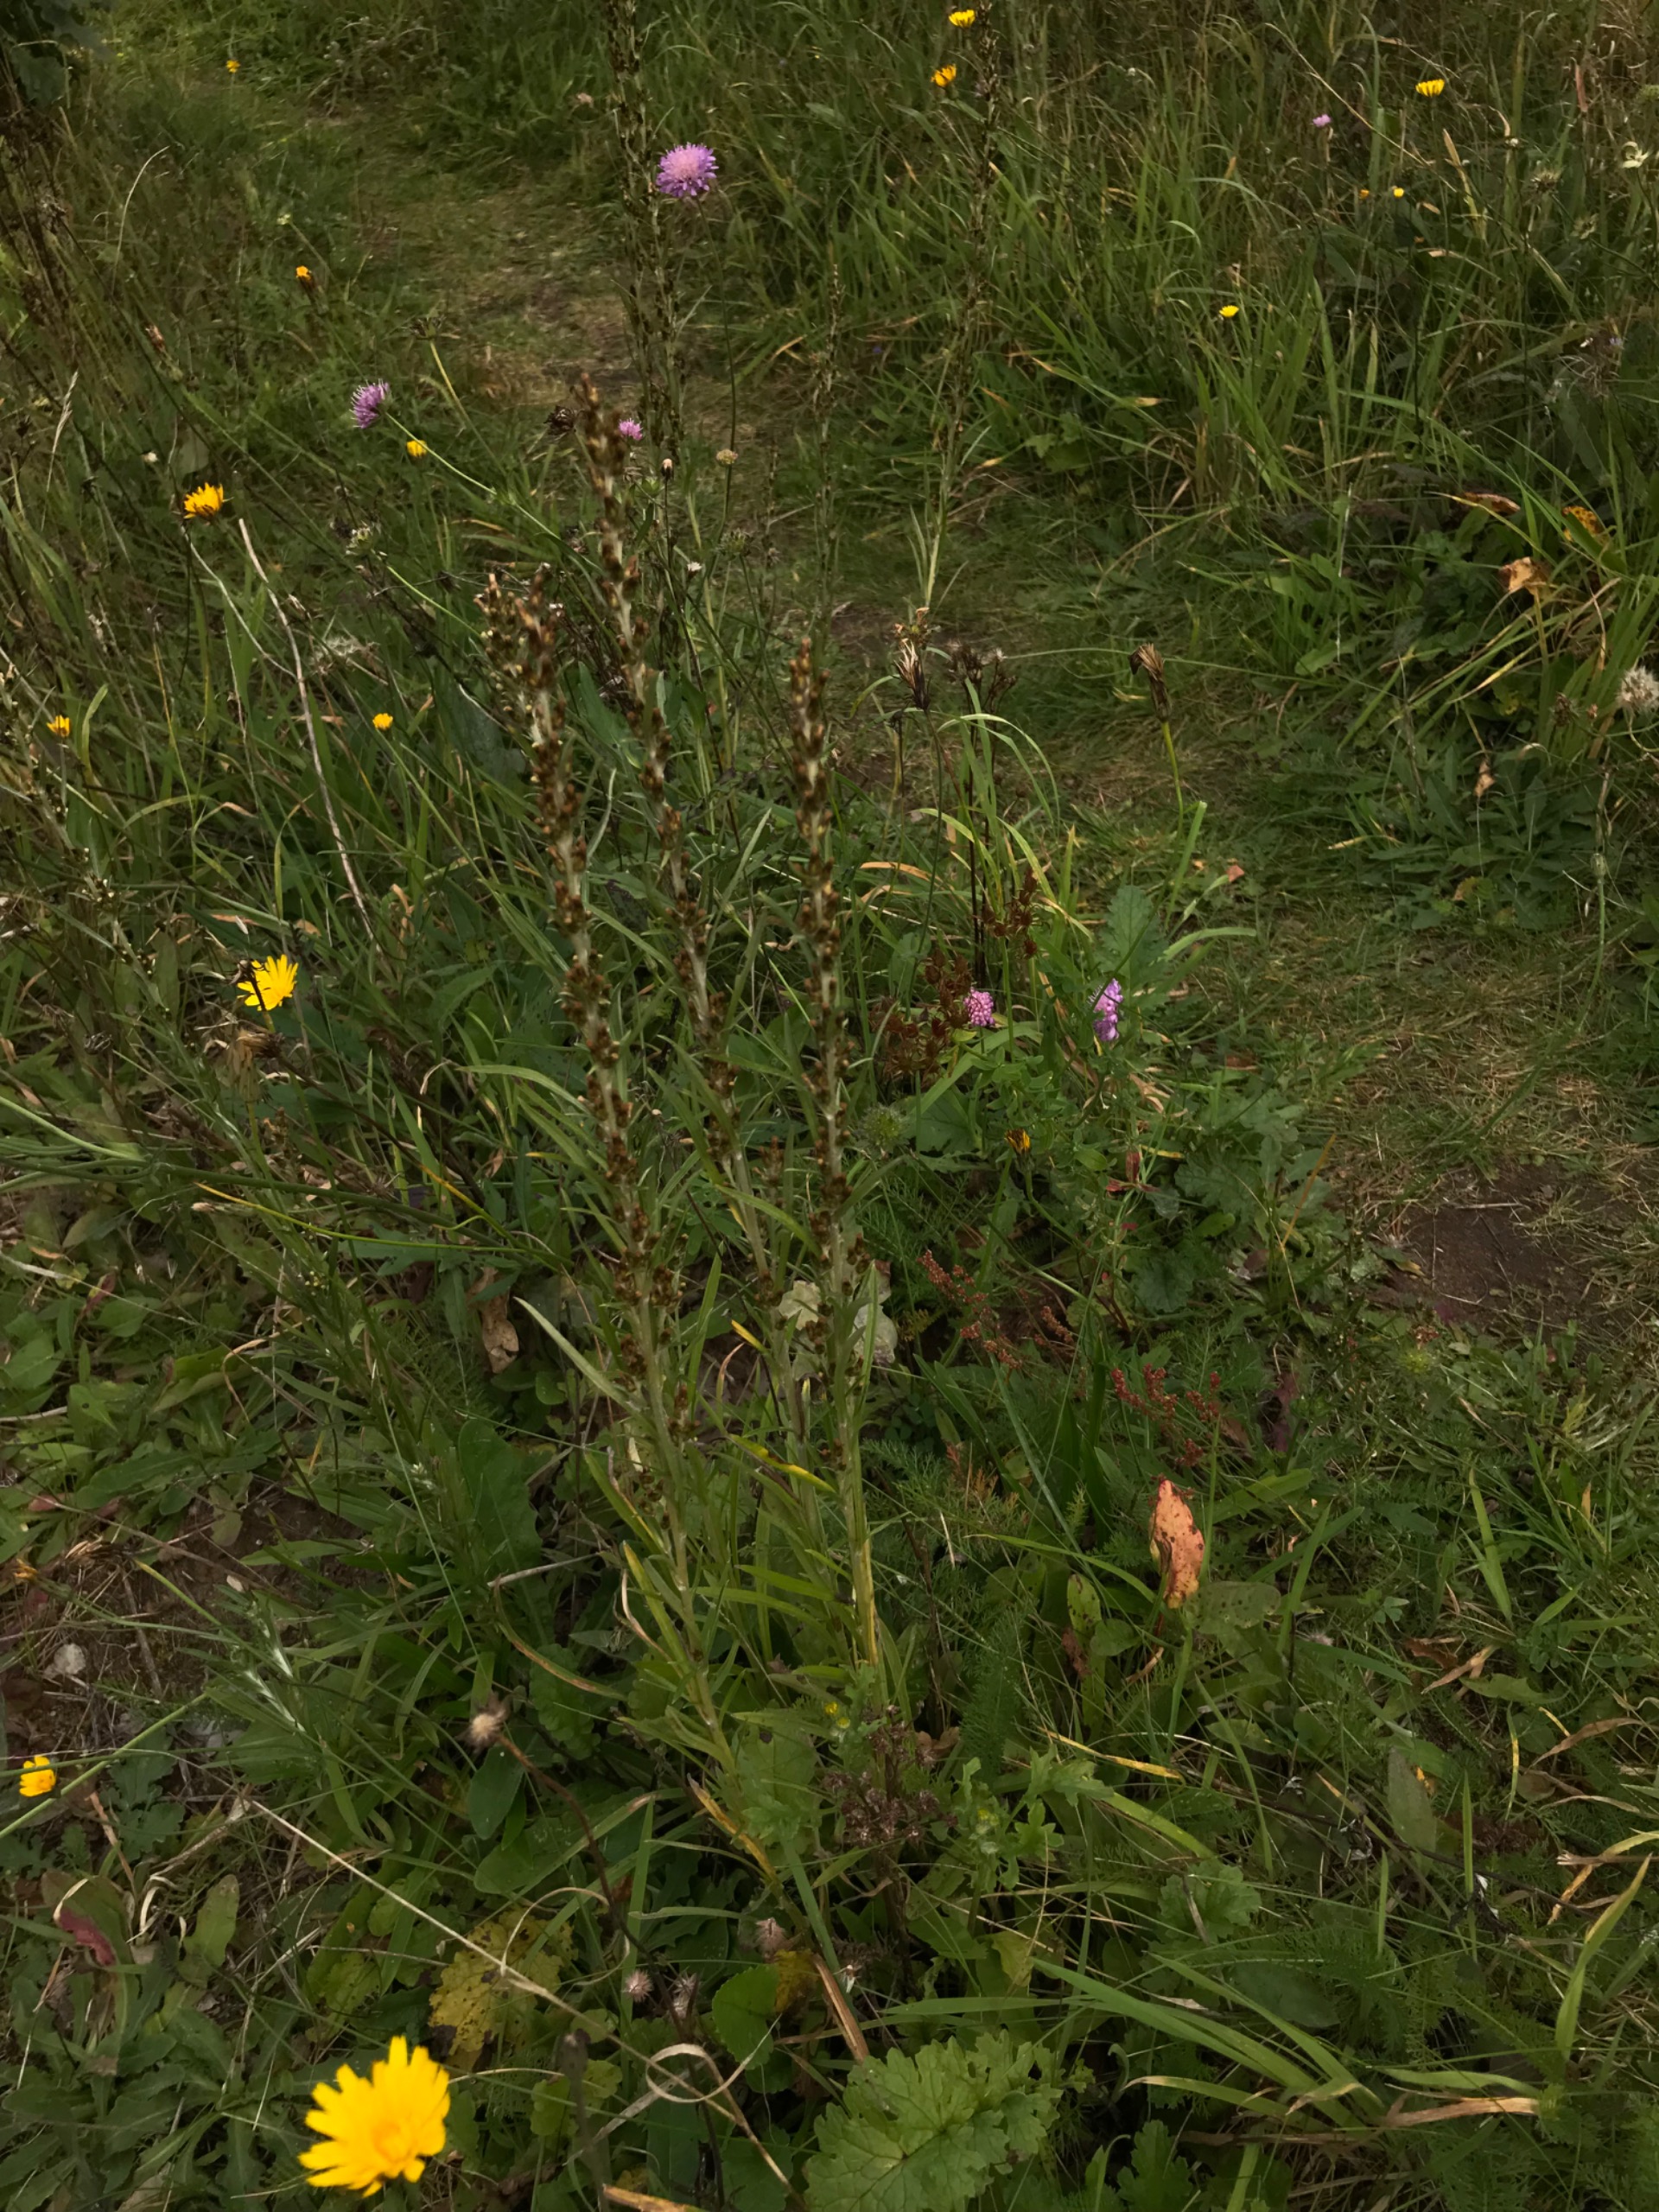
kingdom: Plantae
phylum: Tracheophyta
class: Magnoliopsida
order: Asterales
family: Asteraceae
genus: Omalotheca
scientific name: Omalotheca sylvatica
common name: Rank evighedsblomst
